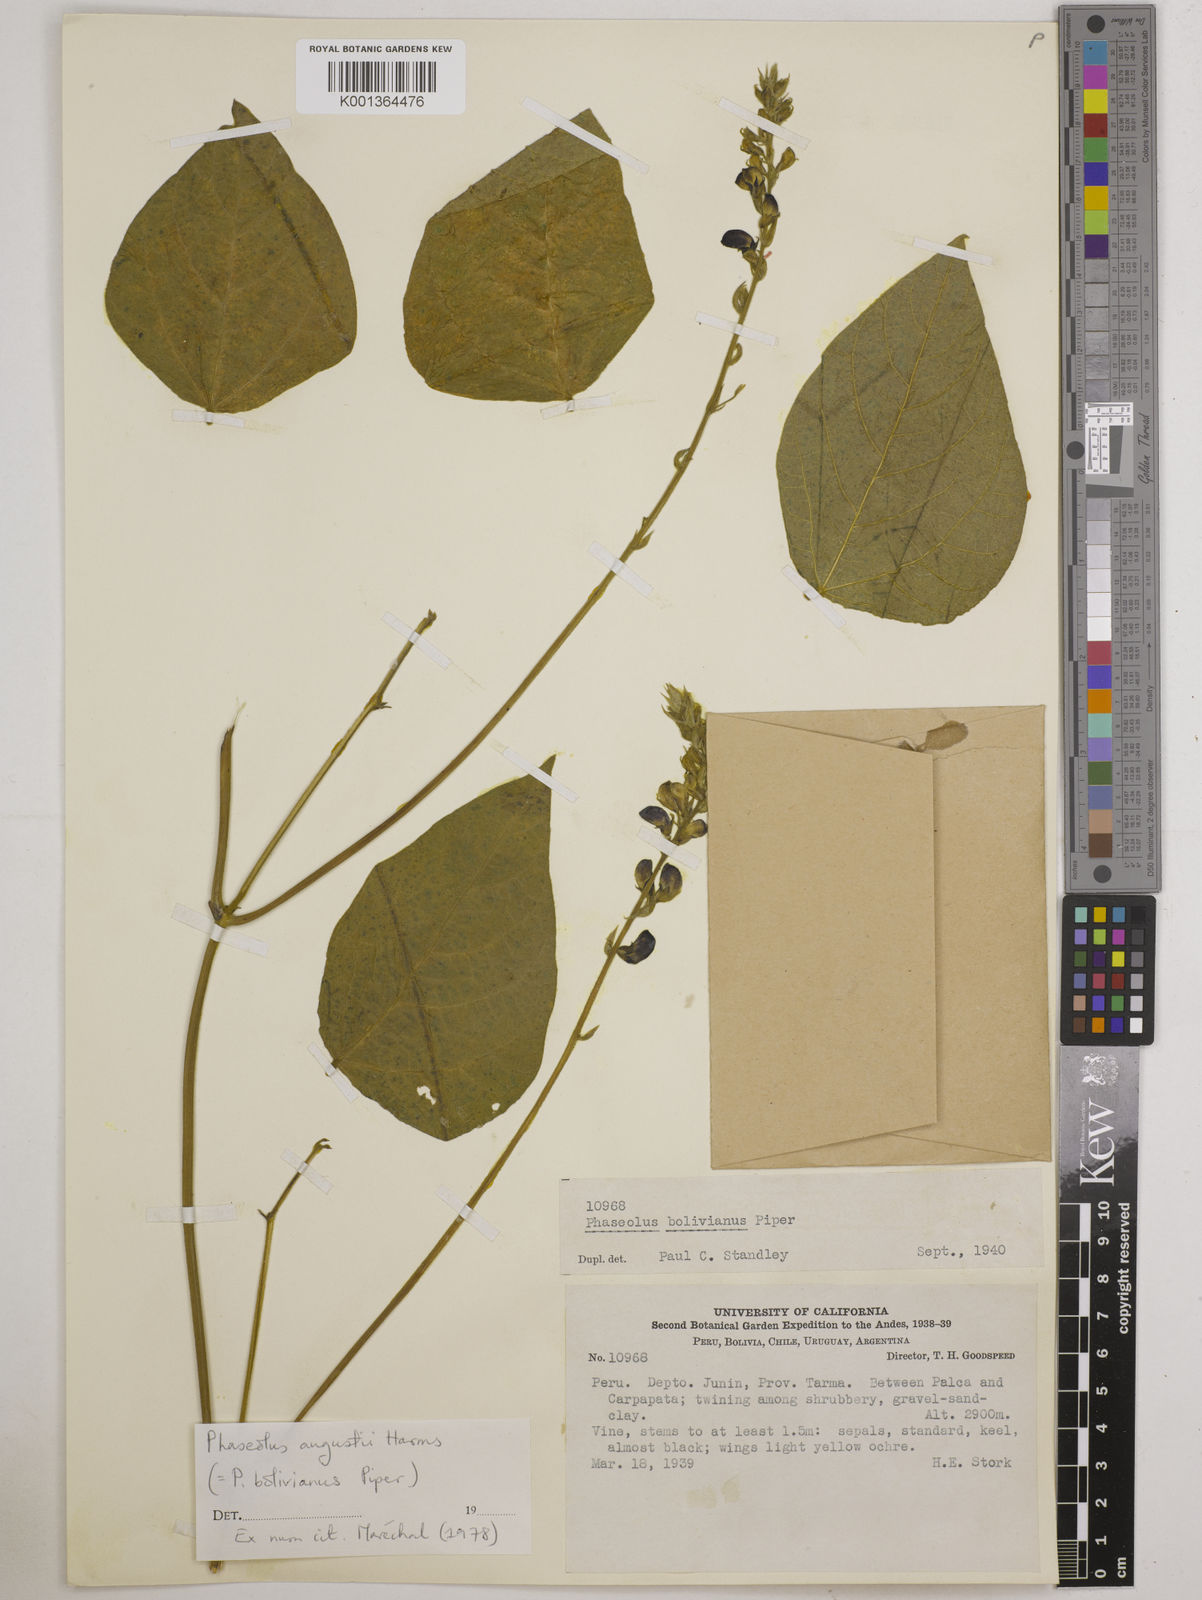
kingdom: Plantae
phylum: Tracheophyta
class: Magnoliopsida
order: Fabales
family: Fabaceae
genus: Phaseolus
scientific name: Phaseolus augusti
